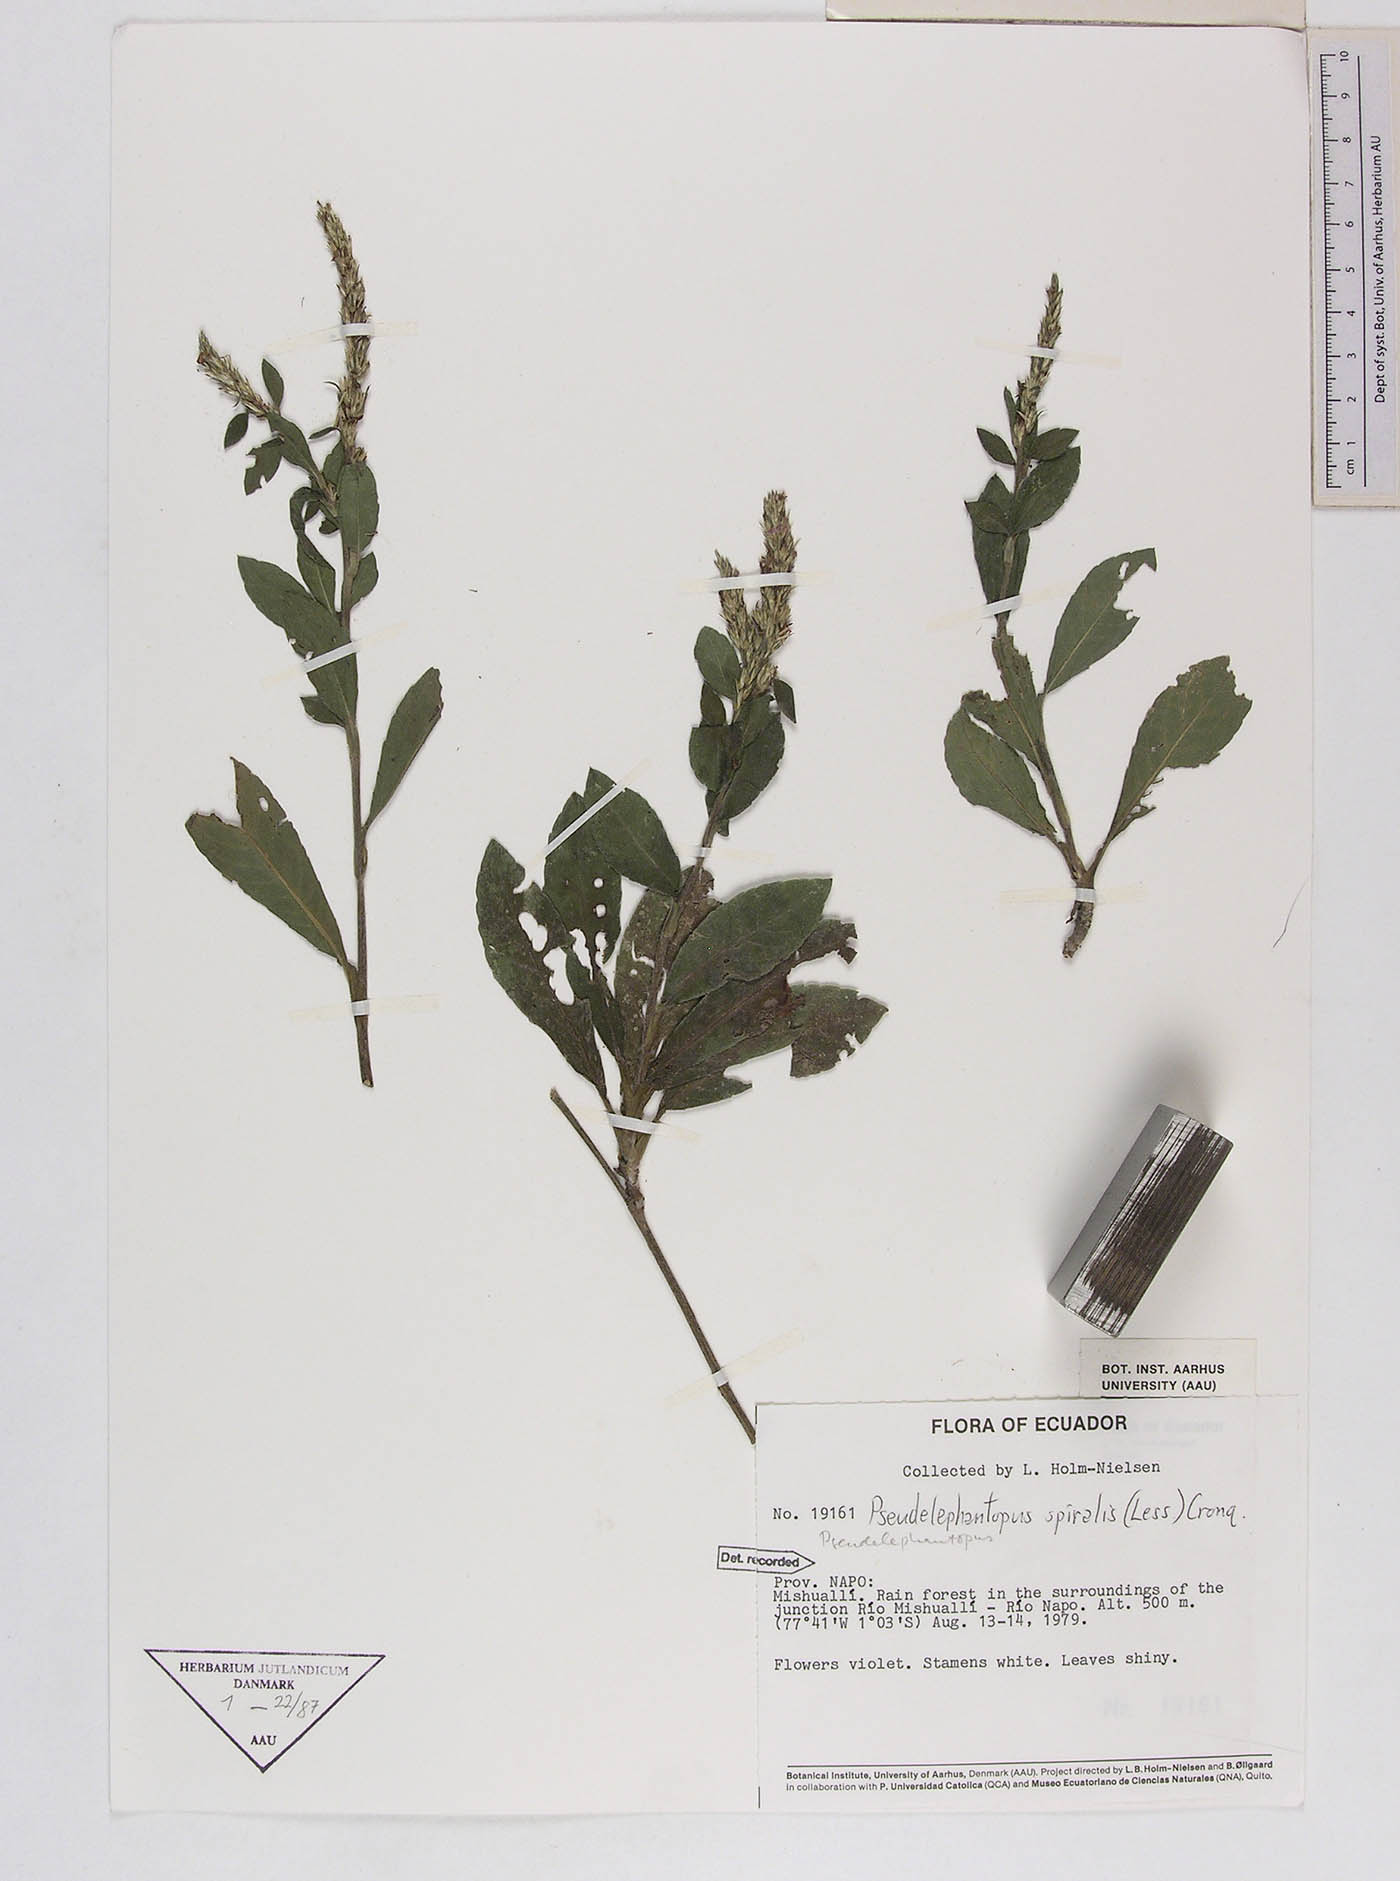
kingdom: Plantae
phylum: Tracheophyta
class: Magnoliopsida
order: Asterales
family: Asteraceae
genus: Pseudelephantopus
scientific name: Pseudelephantopus spiralis
